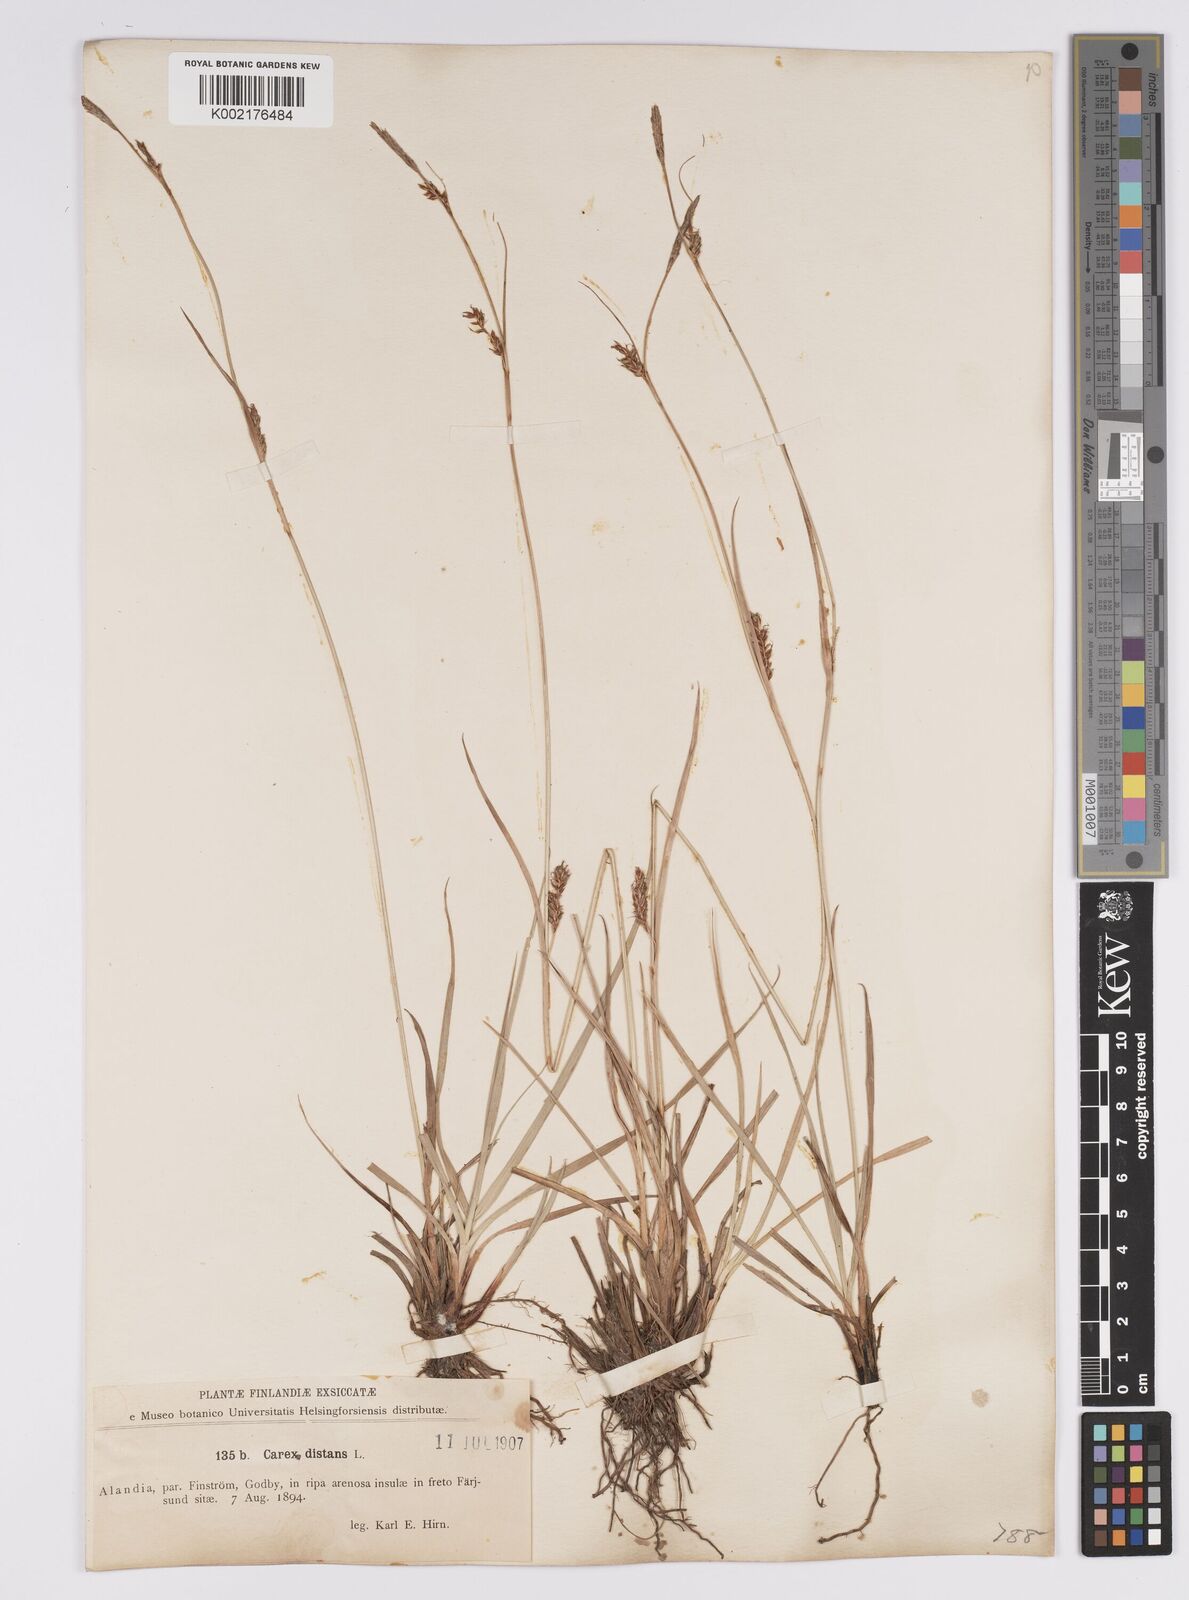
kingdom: Plantae
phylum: Tracheophyta
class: Liliopsida
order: Poales
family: Cyperaceae
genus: Carex
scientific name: Carex distans
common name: Distant sedge
